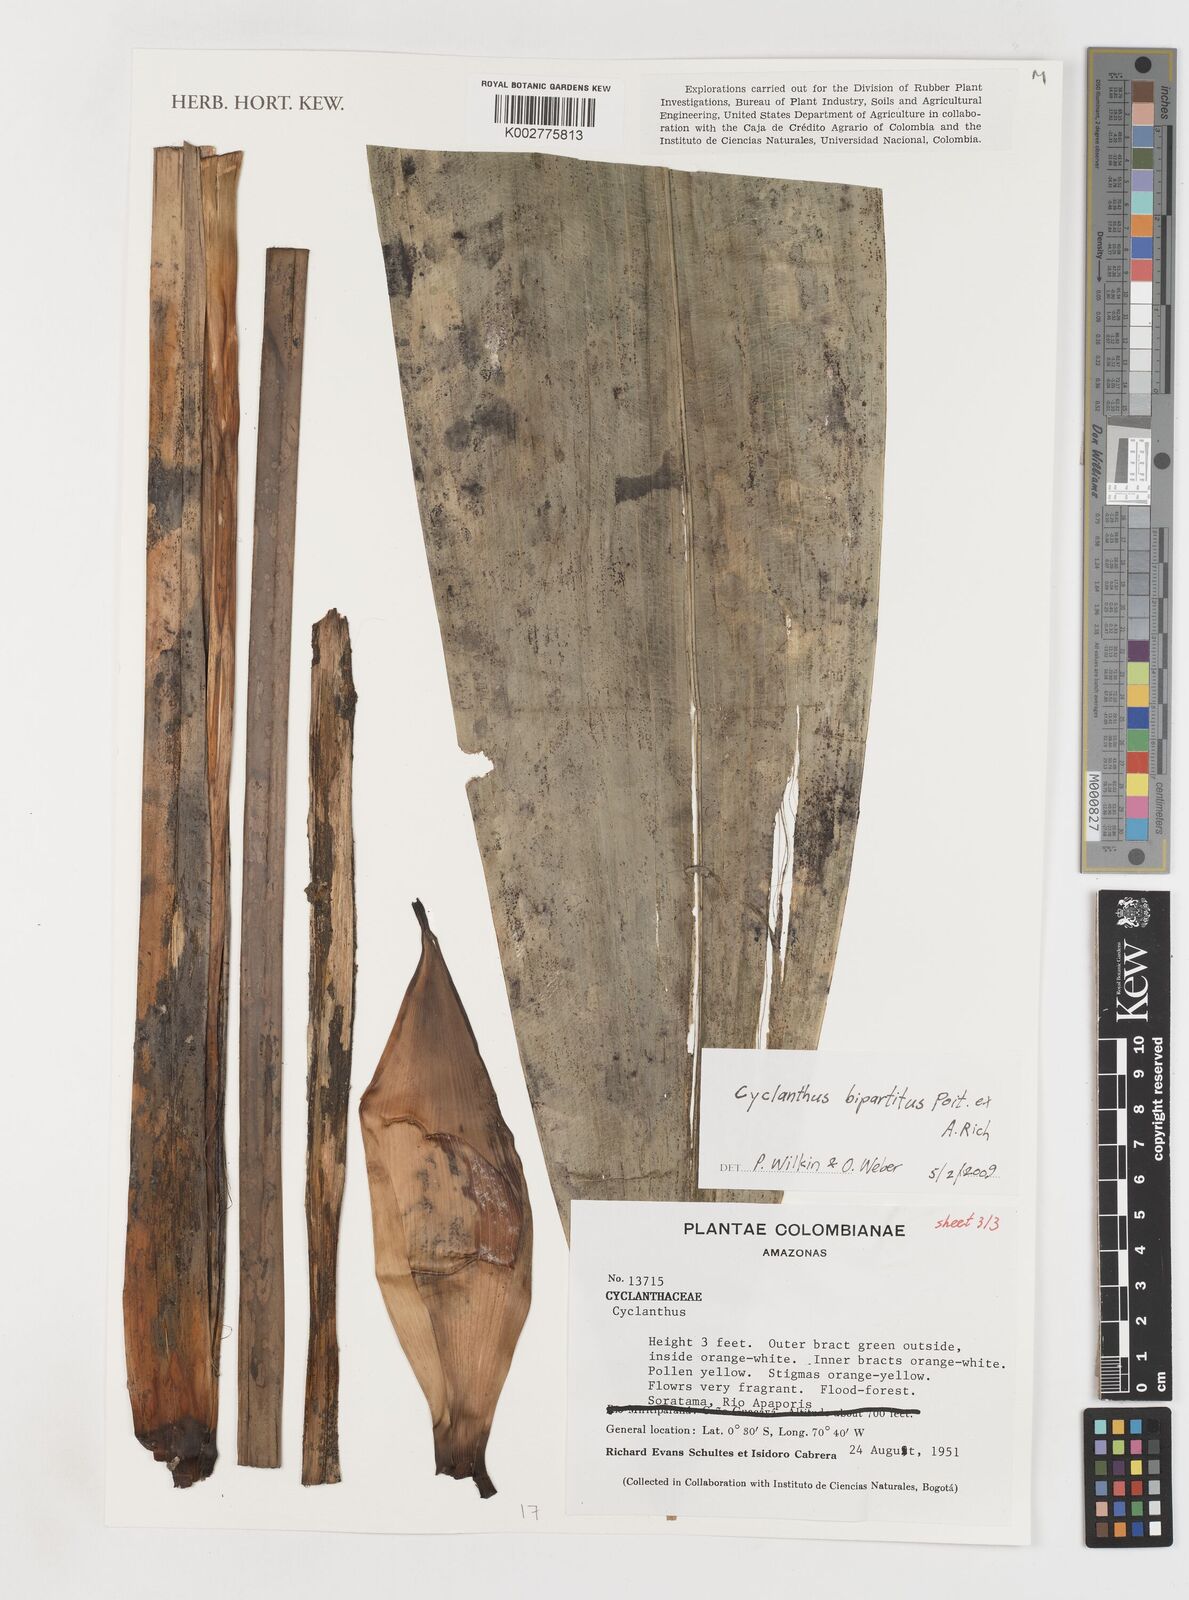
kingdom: Plantae
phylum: Tracheophyta
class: Liliopsida
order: Pandanales
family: Cyclanthaceae
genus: Cyclanthus
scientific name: Cyclanthus bipartitus
